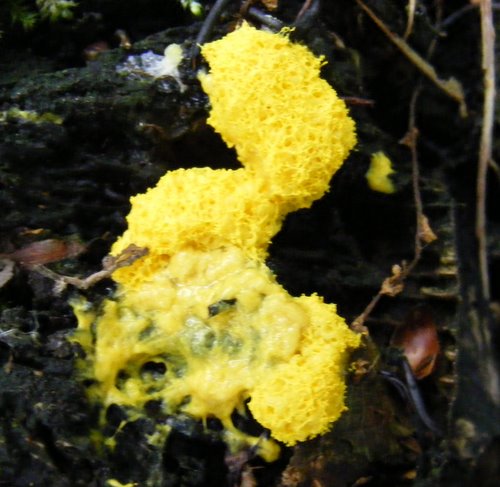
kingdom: Protozoa
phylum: Mycetozoa
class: Myxomycetes
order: Physarales
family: Physaraceae
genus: Fuligo
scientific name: Fuligo septica
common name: gul troldsmør
